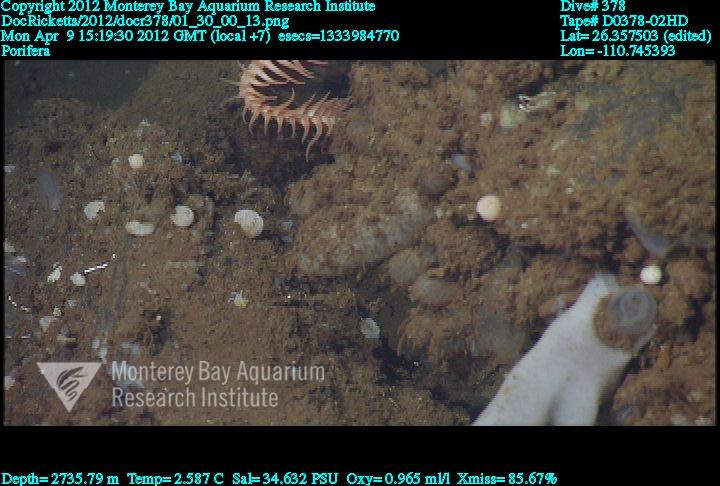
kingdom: Animalia
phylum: Porifera
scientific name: Porifera
